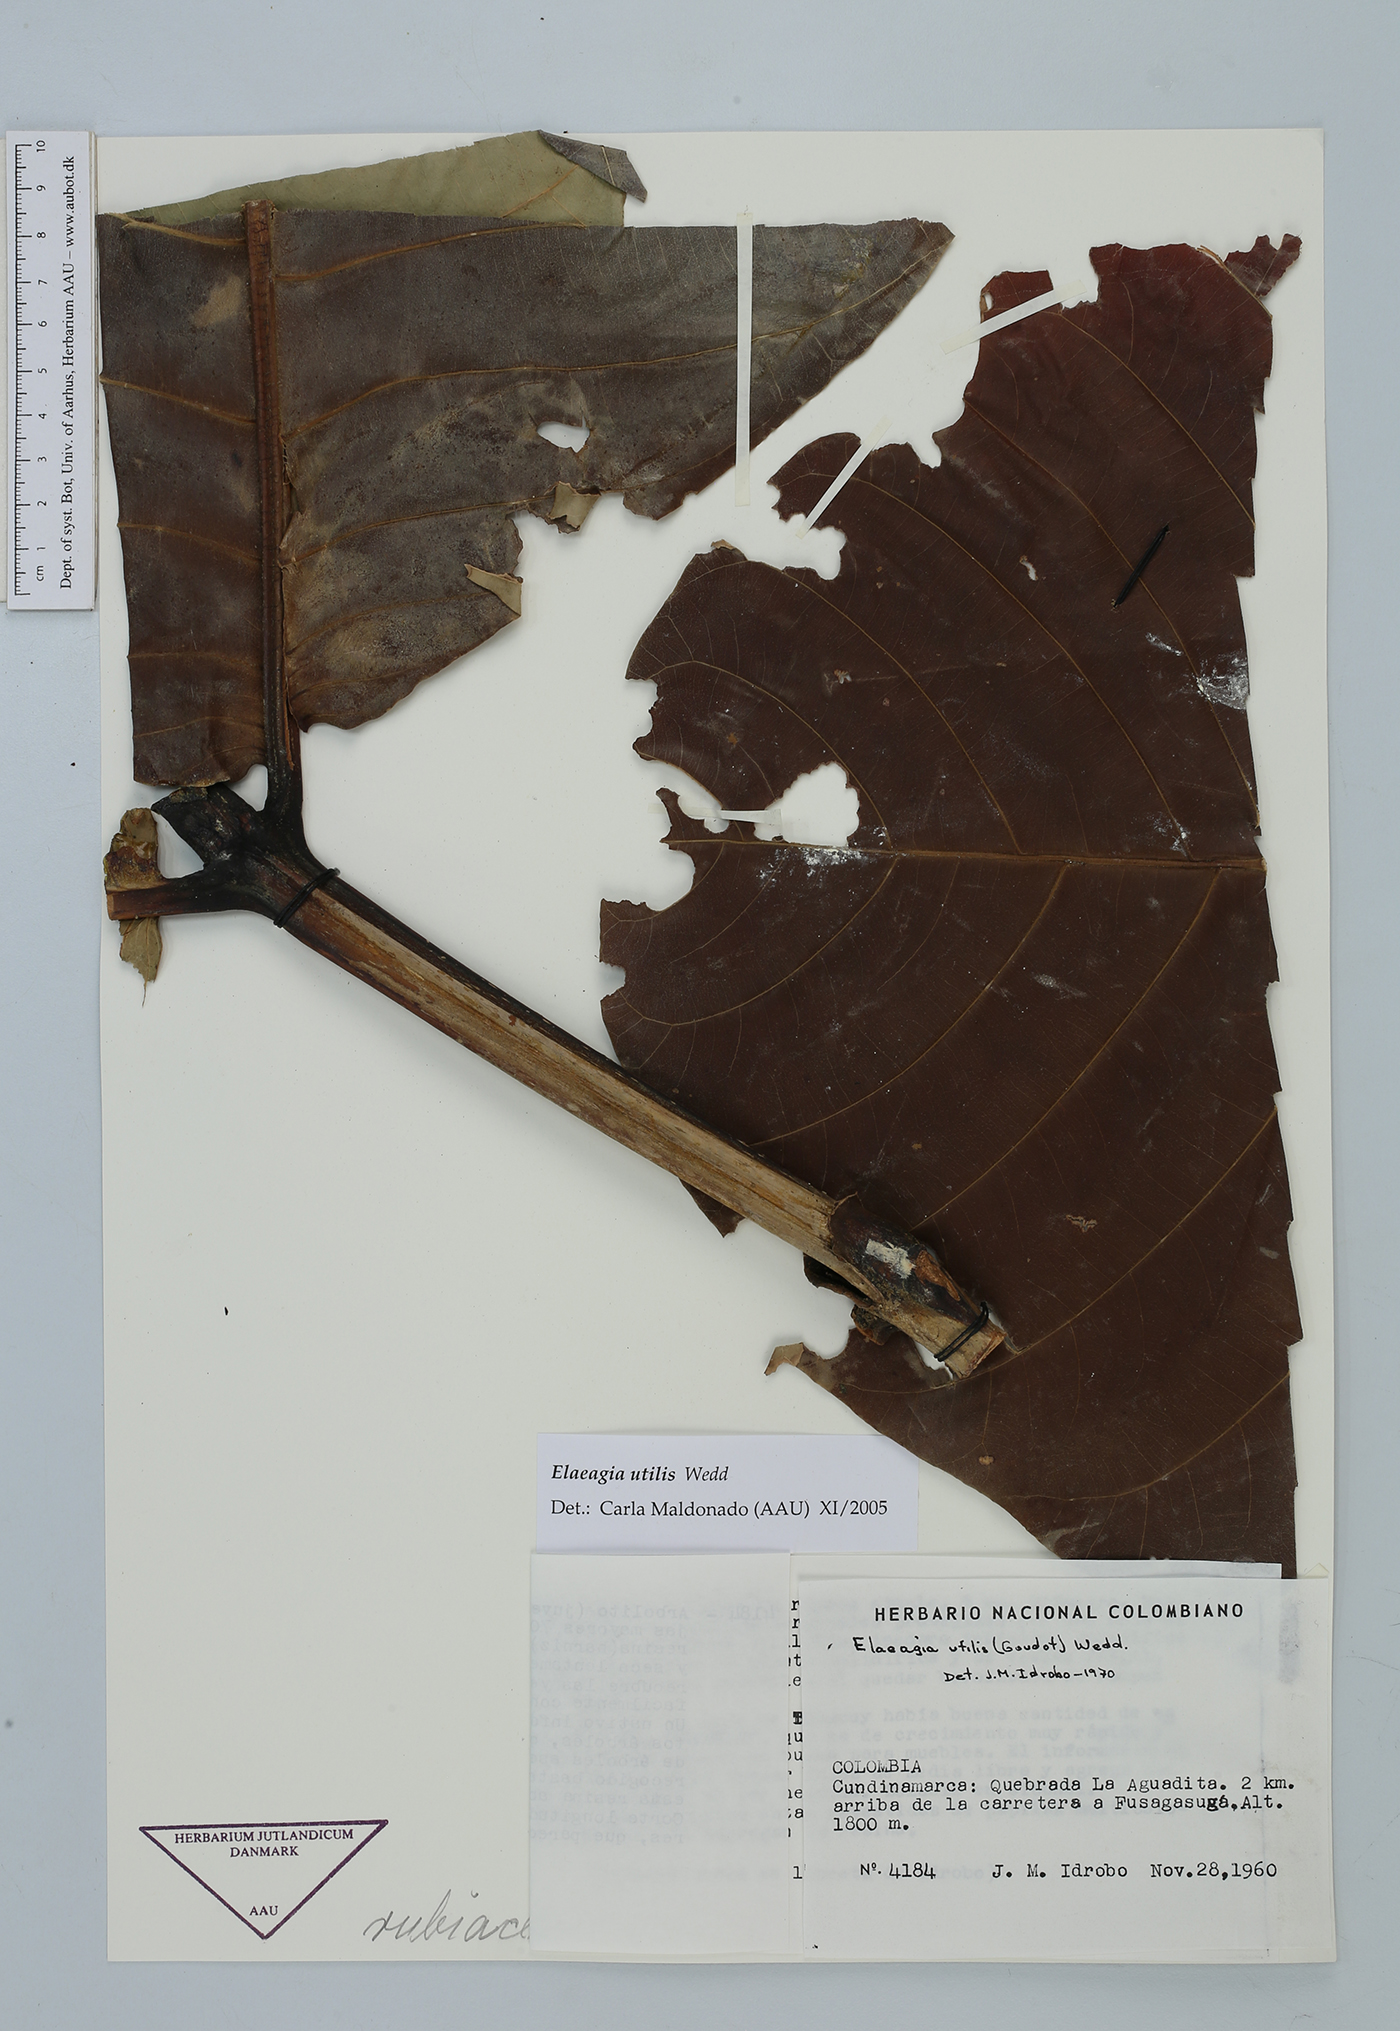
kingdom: Plantae
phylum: Tracheophyta
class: Magnoliopsida
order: Gentianales
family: Rubiaceae
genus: Elaeagia
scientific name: Elaeagia utilis
